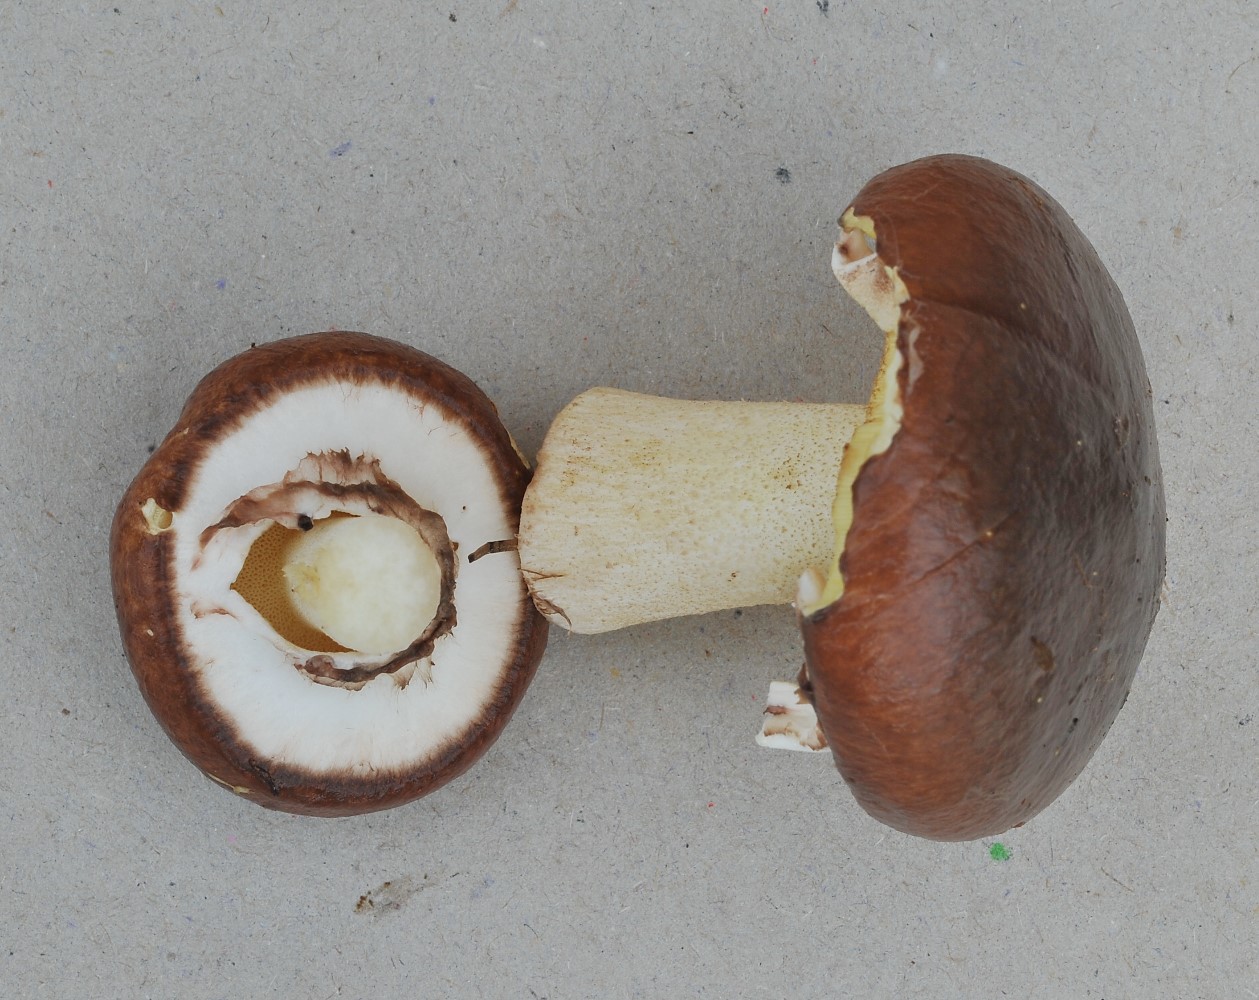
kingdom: Fungi
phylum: Basidiomycota
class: Agaricomycetes
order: Boletales
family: Suillaceae
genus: Suillus
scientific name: Suillus luteus
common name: brungul slimrørhat
